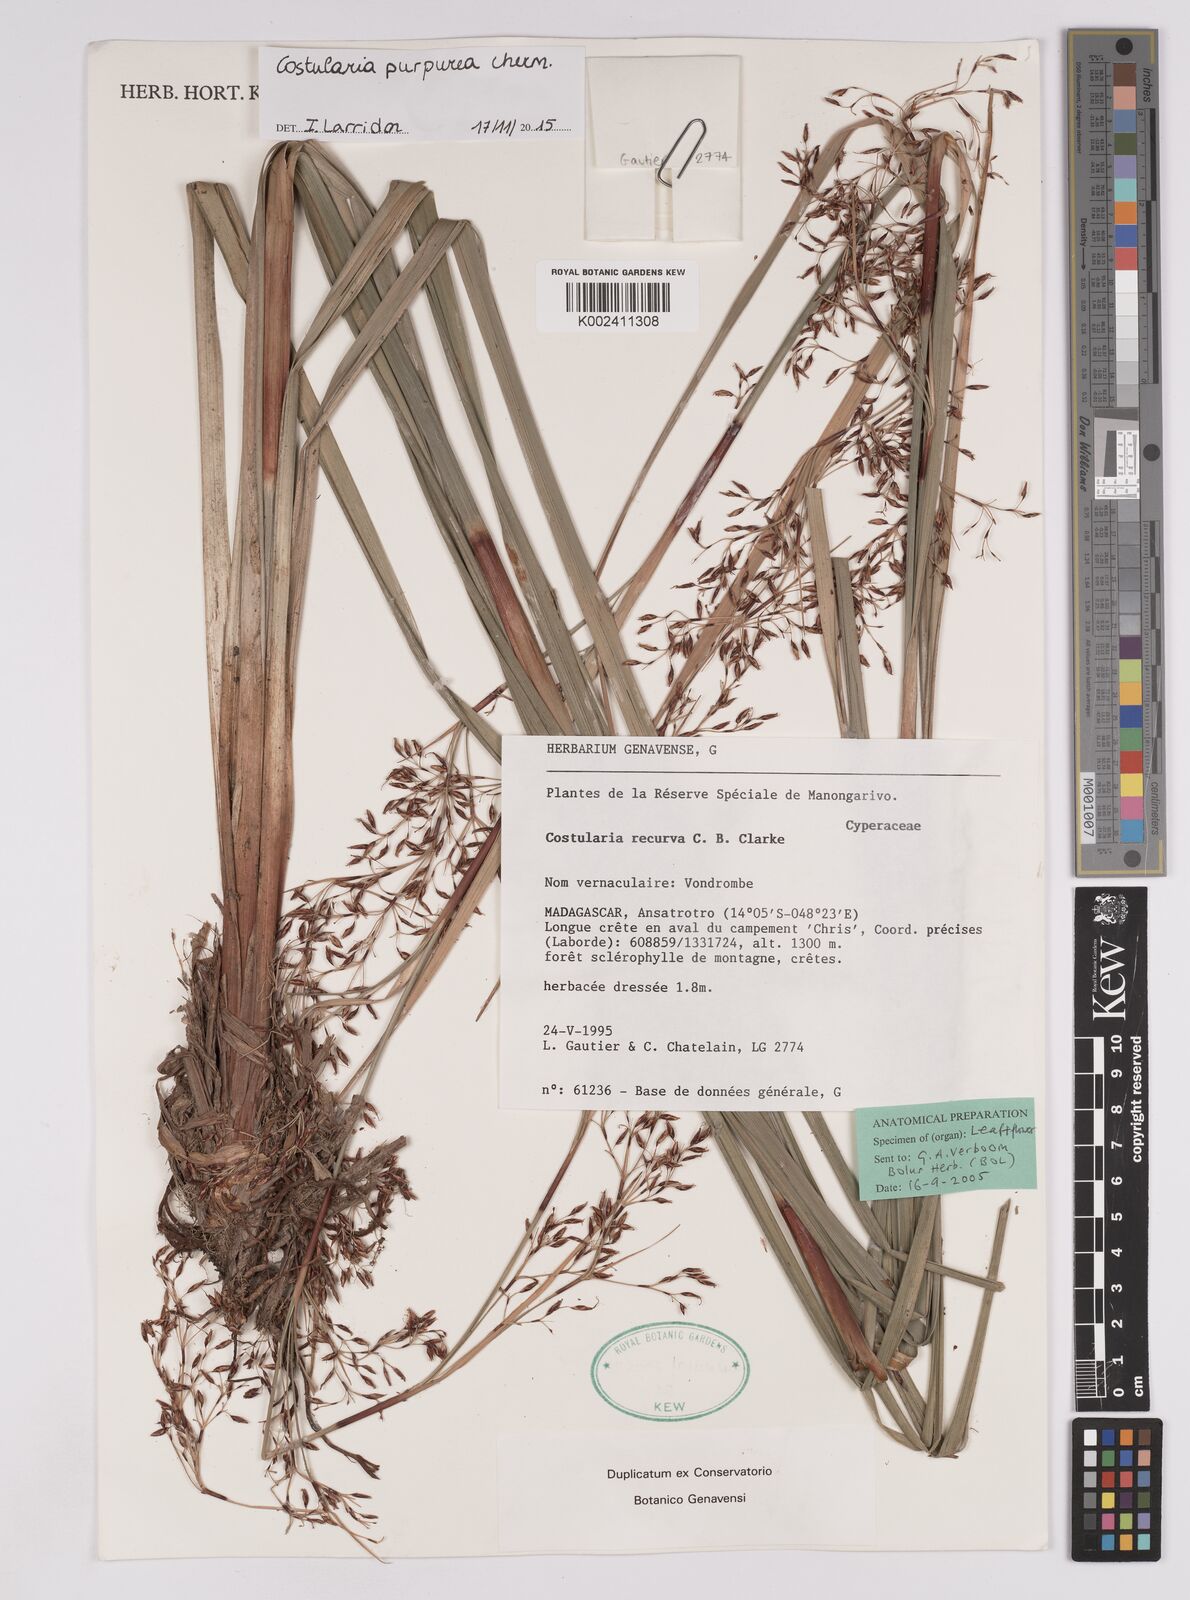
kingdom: Plantae
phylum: Tracheophyta
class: Liliopsida
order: Poales
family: Cyperaceae
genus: Costularia
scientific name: Costularia purpurea
